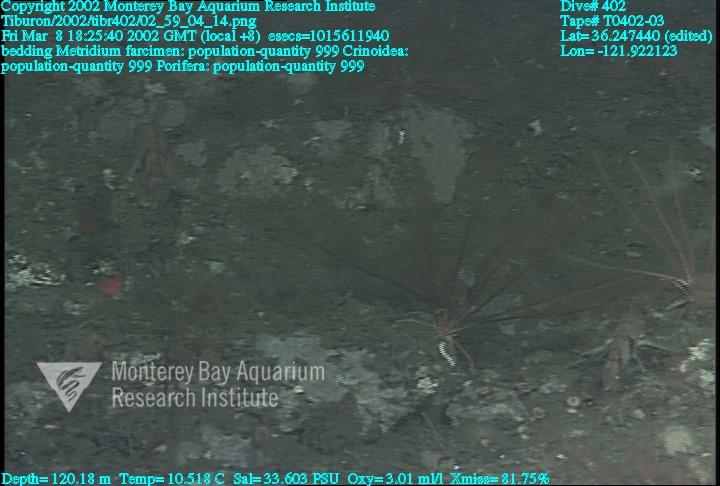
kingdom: Animalia
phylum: Porifera
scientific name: Porifera
